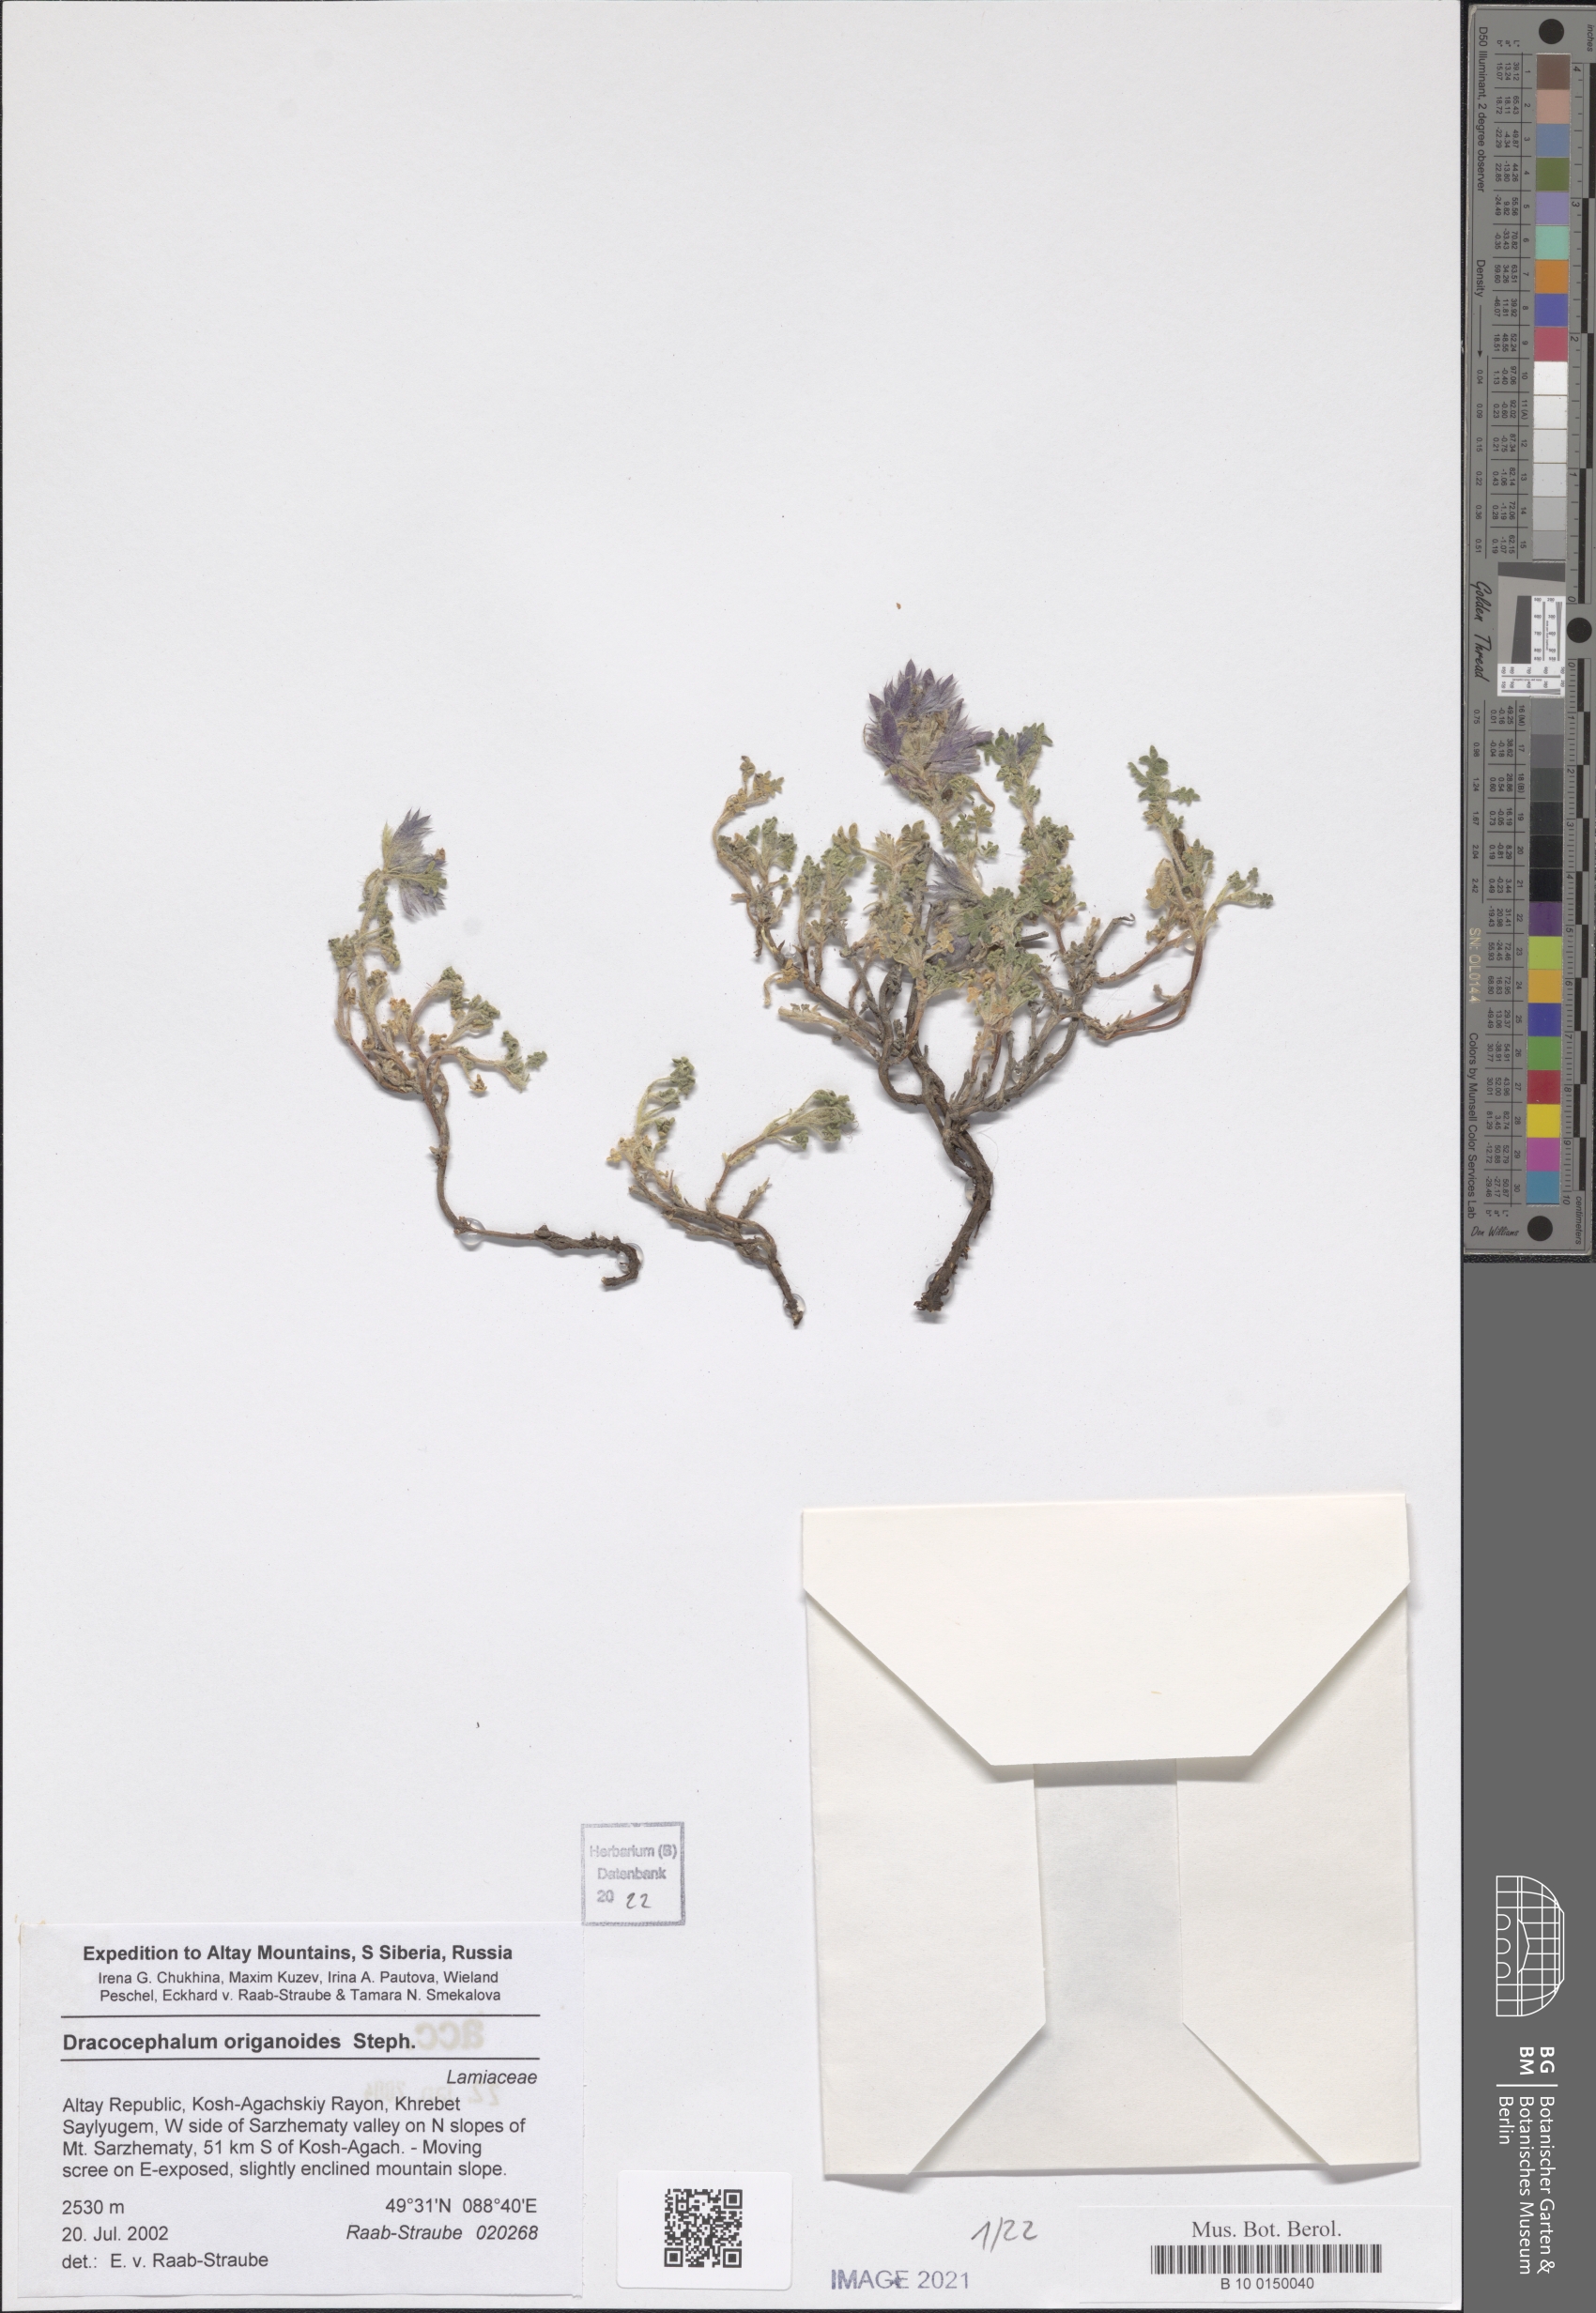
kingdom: Plantae
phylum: Tracheophyta
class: Magnoliopsida
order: Lamiales
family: Lamiaceae
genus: Dracocephalum
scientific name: Dracocephalum origanoides
